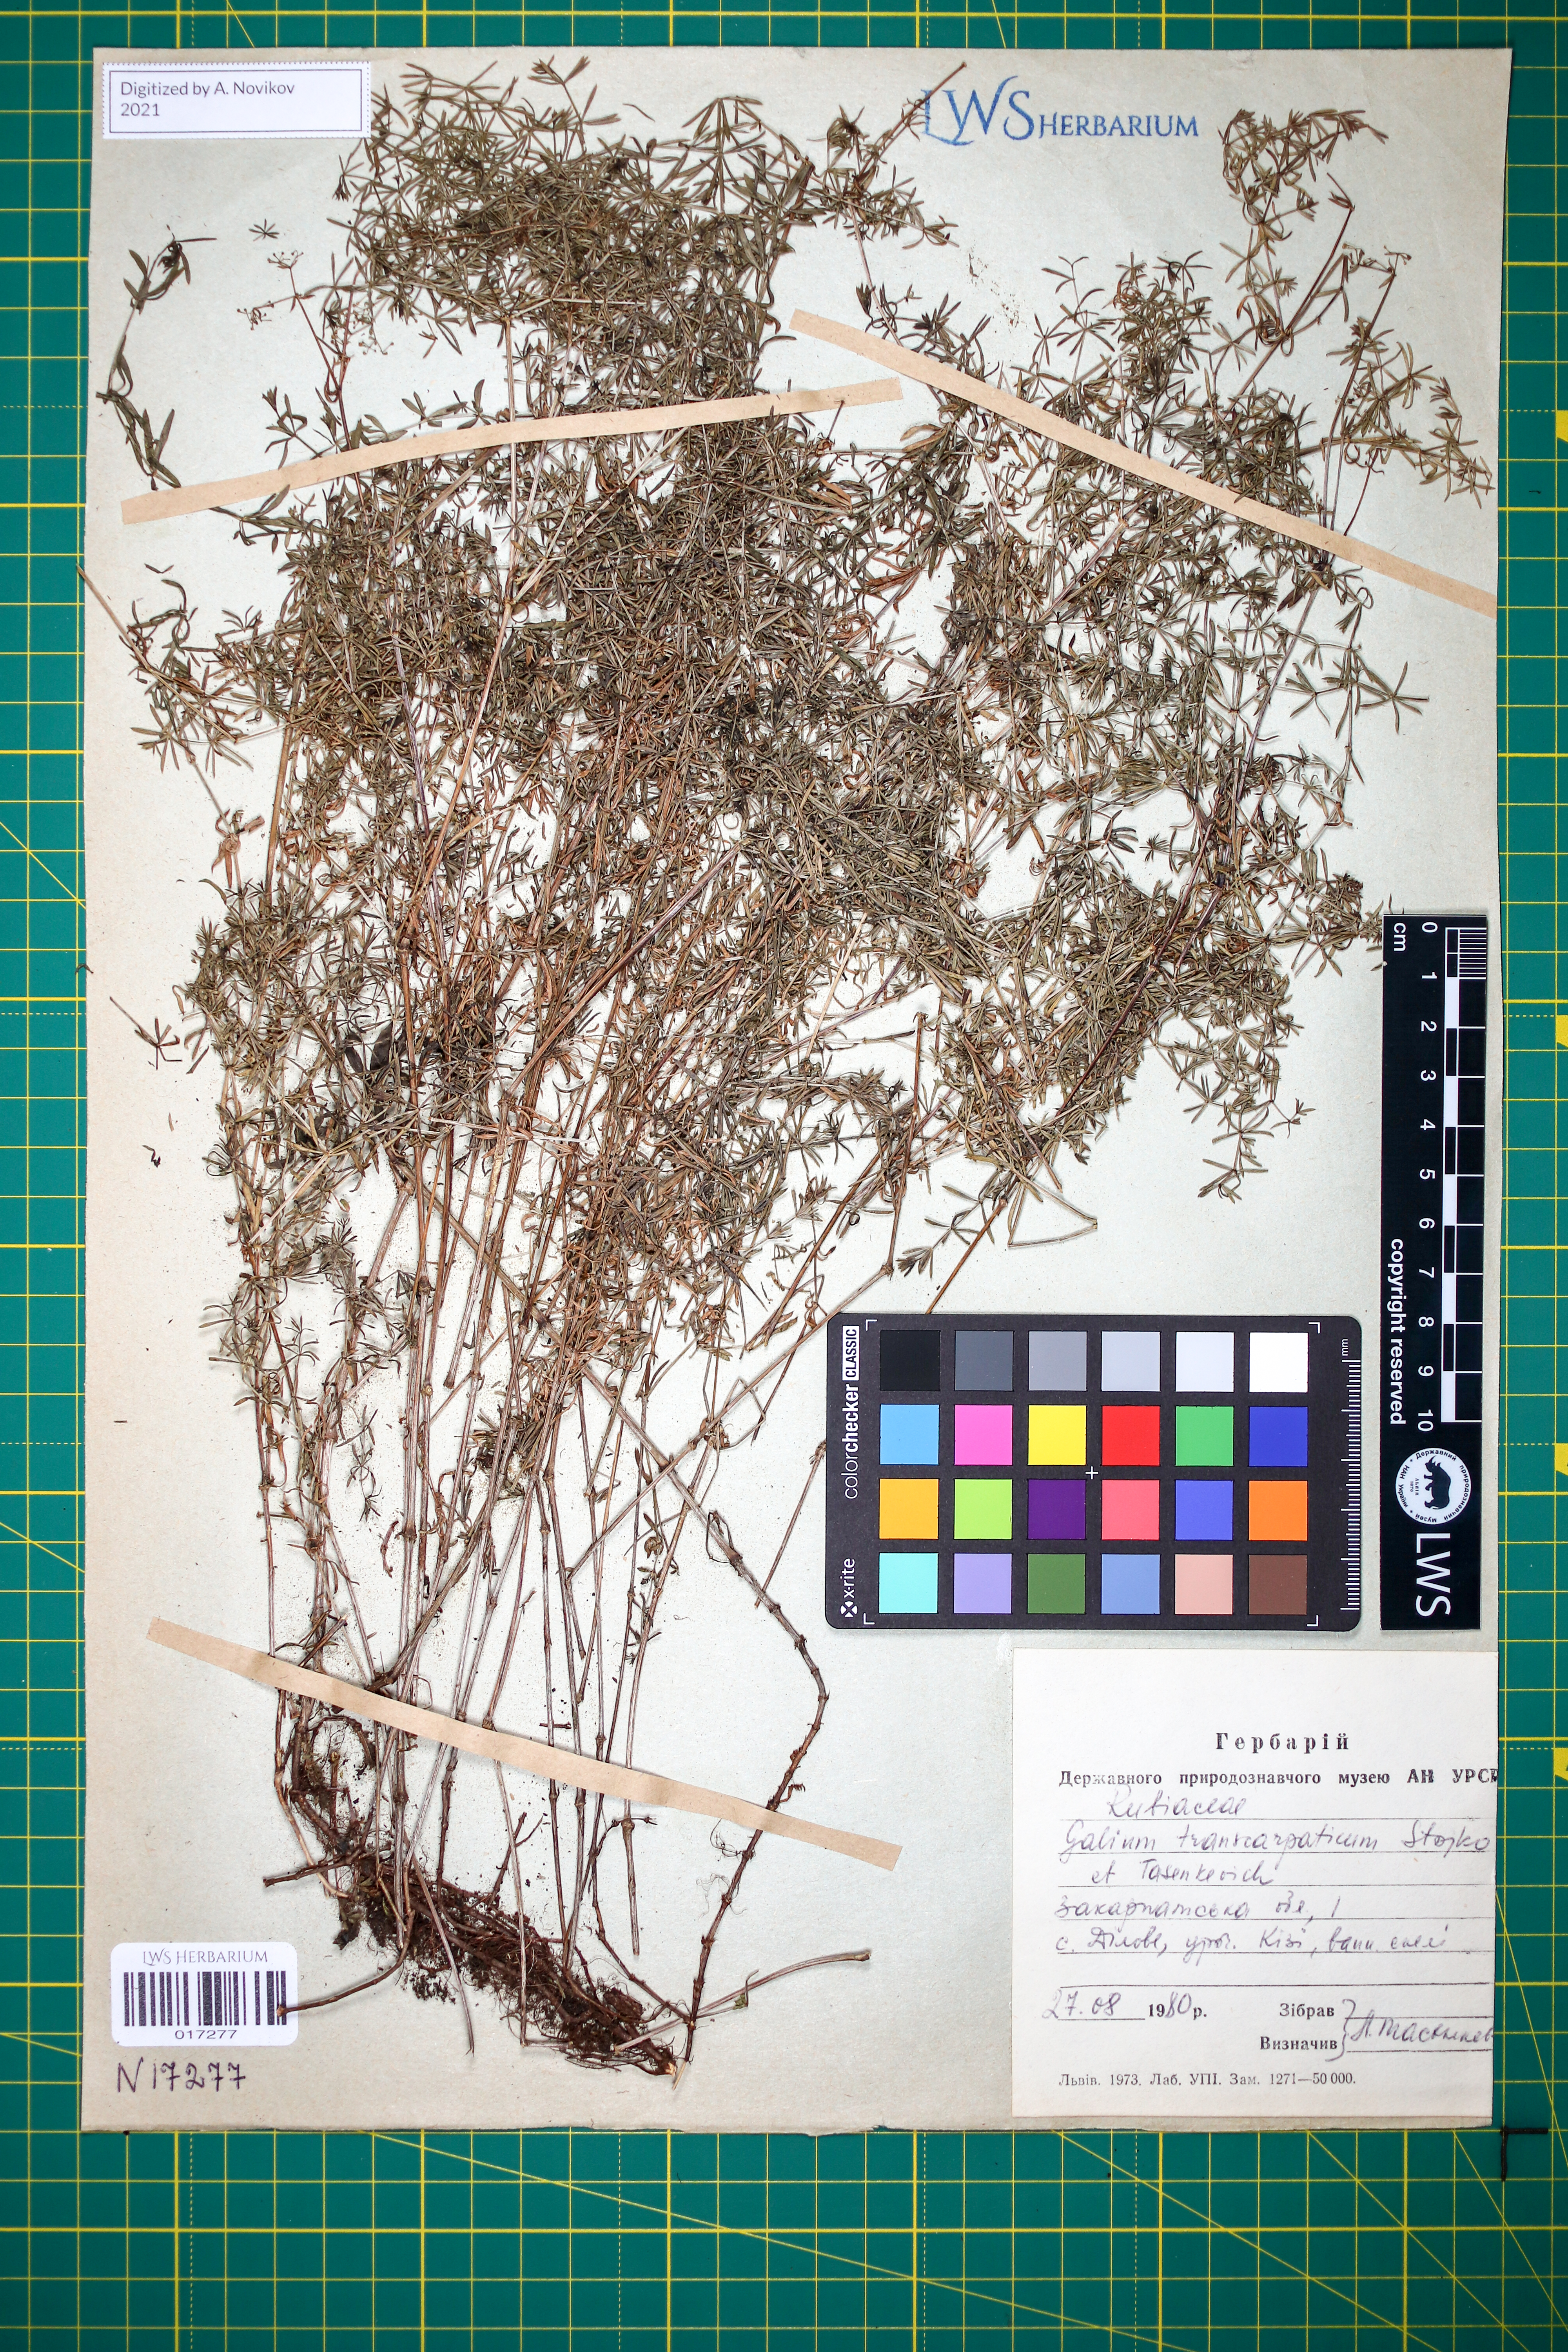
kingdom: Plantae
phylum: Tracheophyta
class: Magnoliopsida
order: Gentianales
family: Rubiaceae
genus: Galium
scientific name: Galium transcarpaticum
